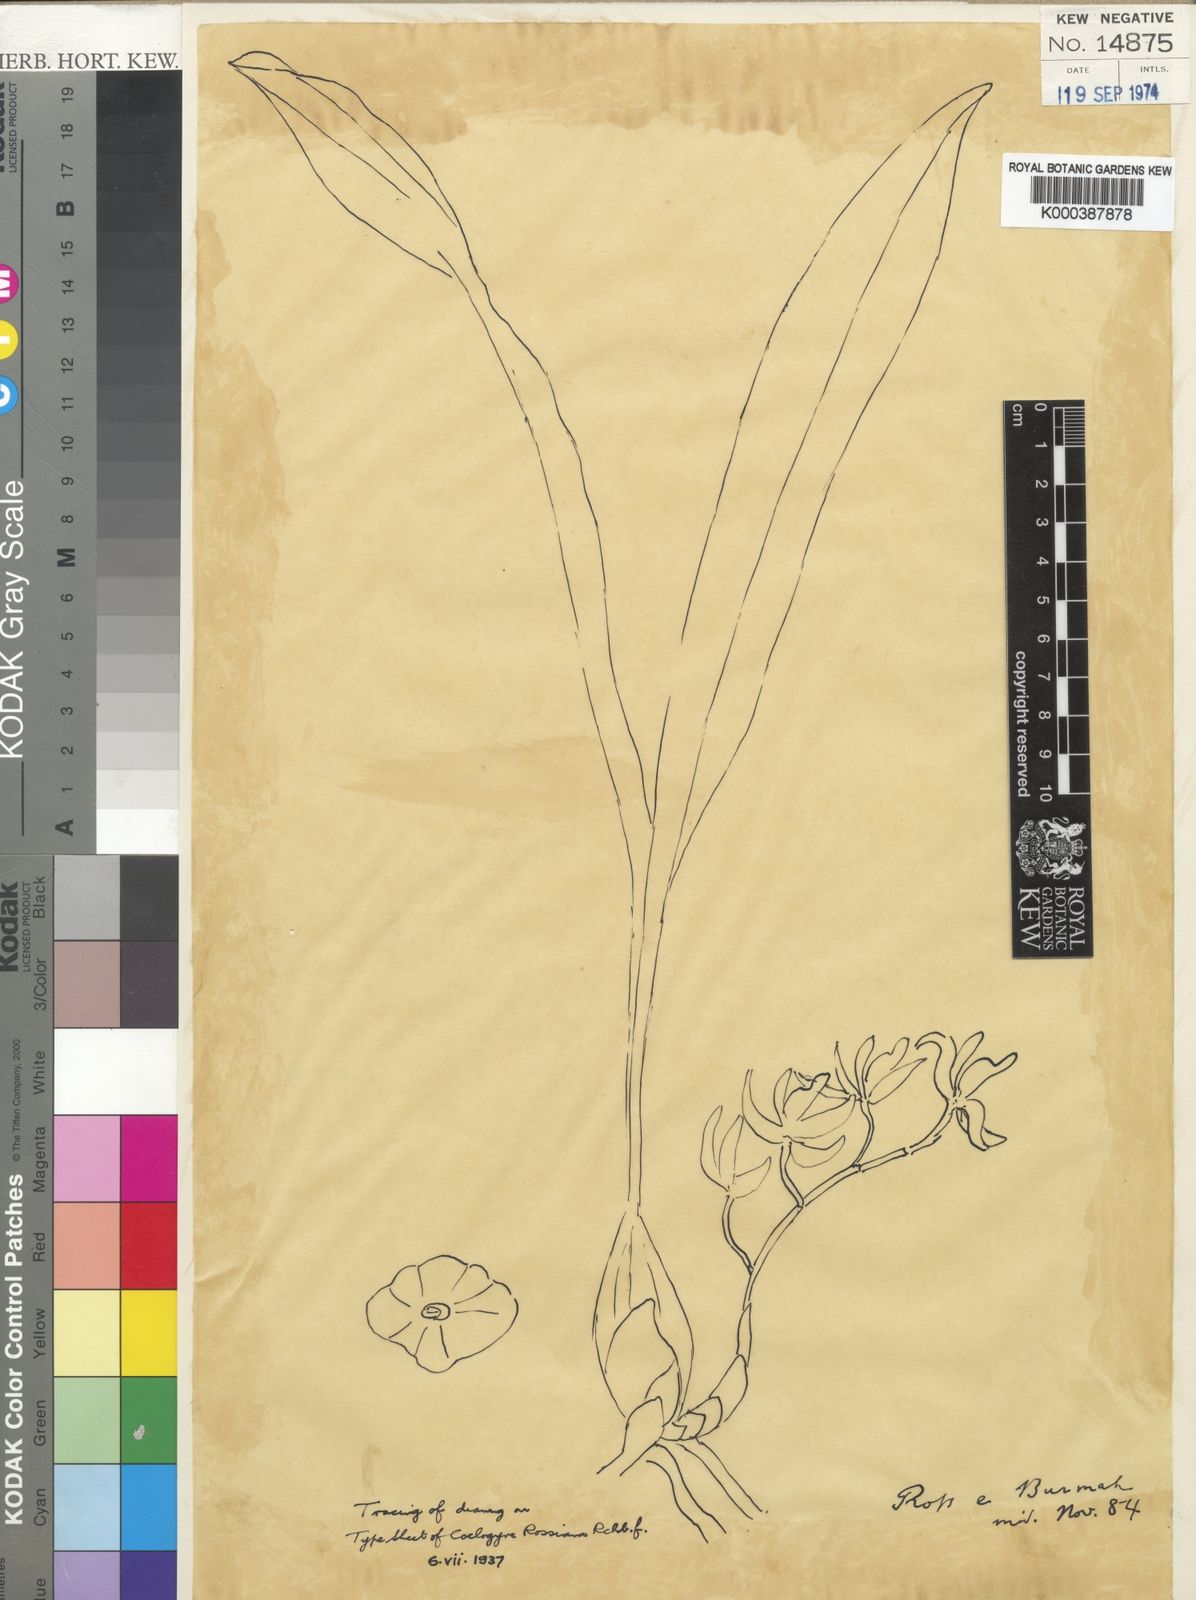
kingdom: Plantae
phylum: Tracheophyta
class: Liliopsida
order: Asparagales
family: Orchidaceae
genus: Coelogyne
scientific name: Coelogyne trinervis
